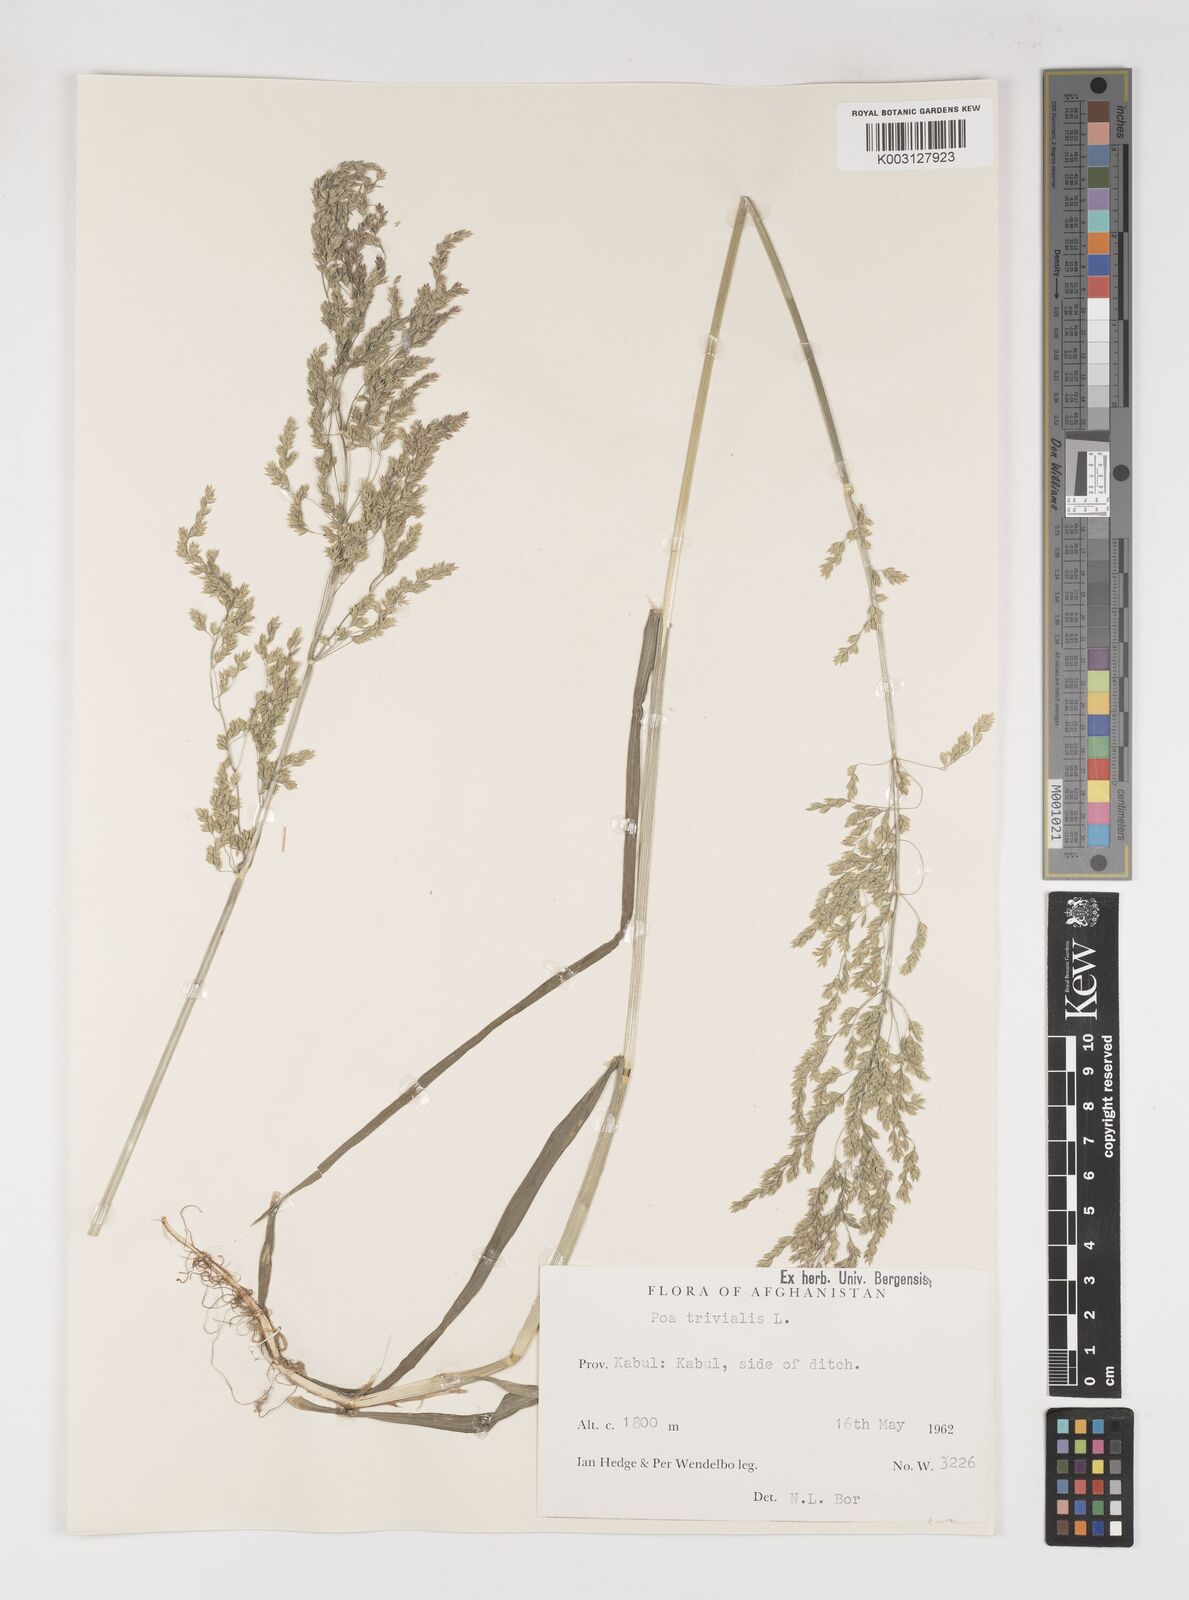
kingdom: Plantae
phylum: Tracheophyta
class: Liliopsida
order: Poales
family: Poaceae
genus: Poa
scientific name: Poa trivialis
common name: Rough bluegrass
